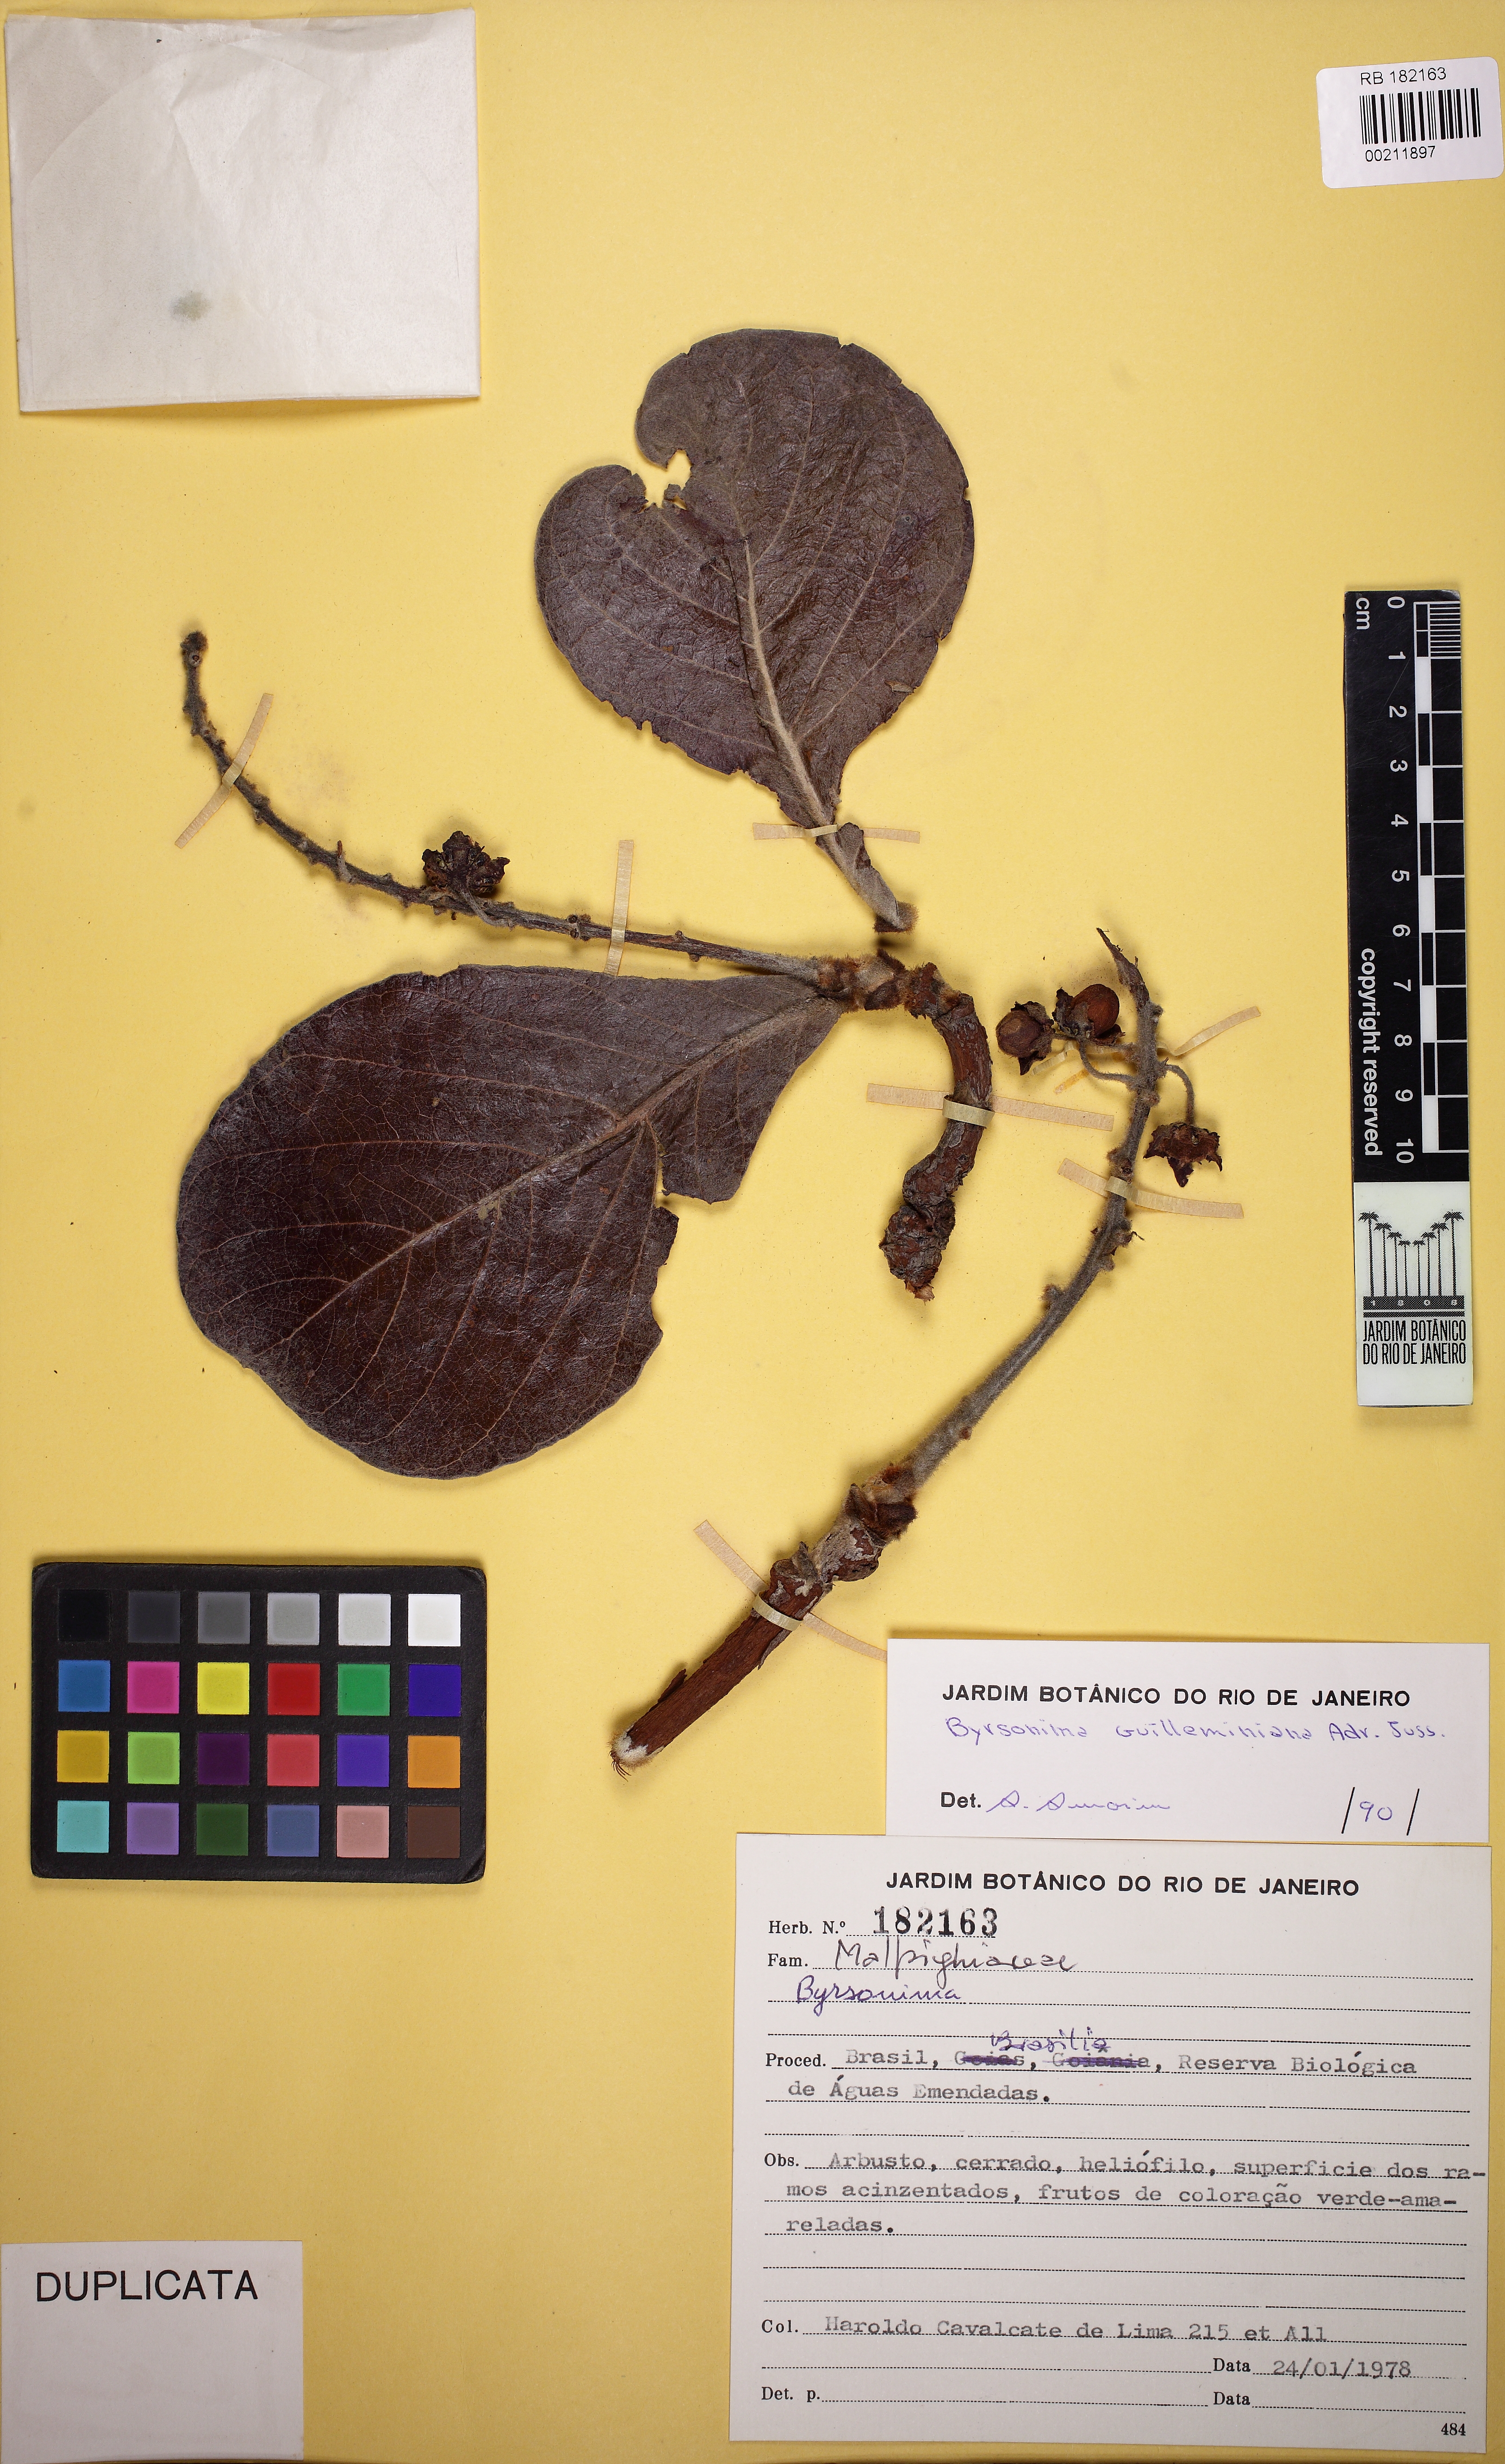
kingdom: Plantae
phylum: Tracheophyta
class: Magnoliopsida
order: Malpighiales
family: Malpighiaceae
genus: Byrsonima
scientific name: Byrsonima verbascifolia
